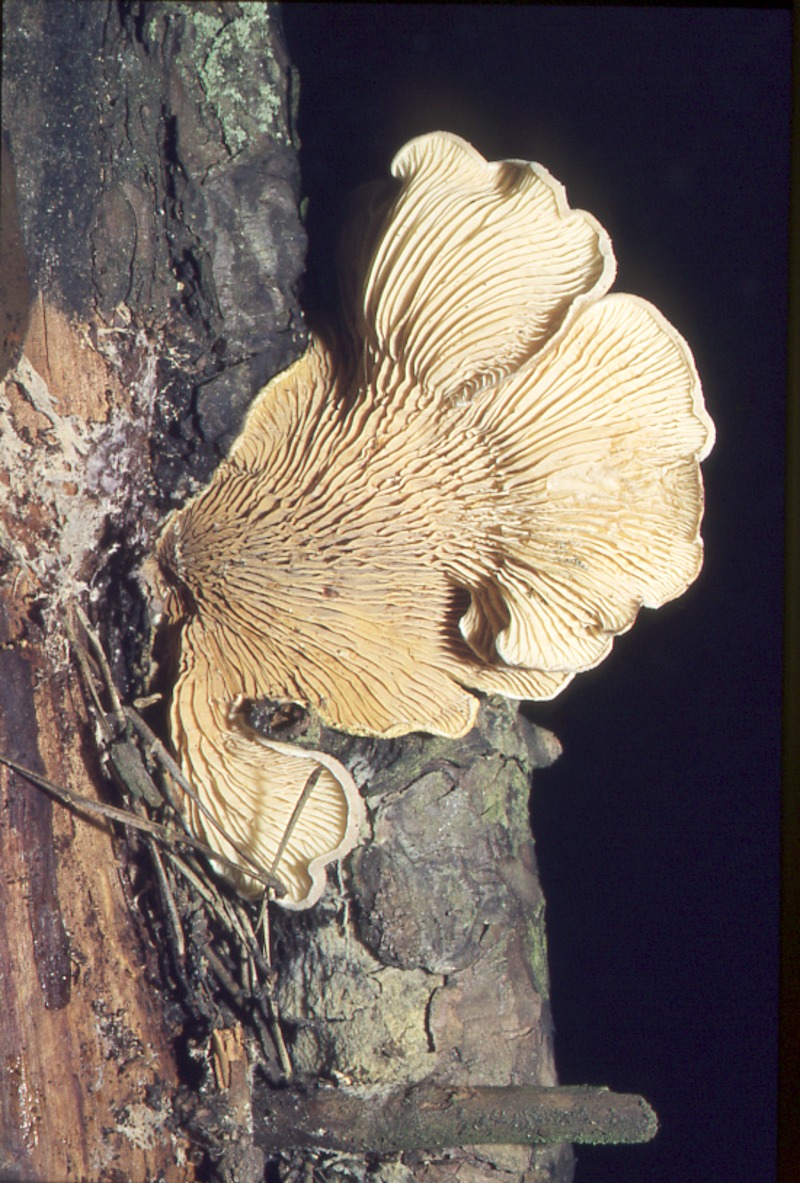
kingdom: Plantae
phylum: Tracheophyta
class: Pinopsida
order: Pinales
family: Pinaceae
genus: Pinus
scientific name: Pinus sylvestris
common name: Scots pine
